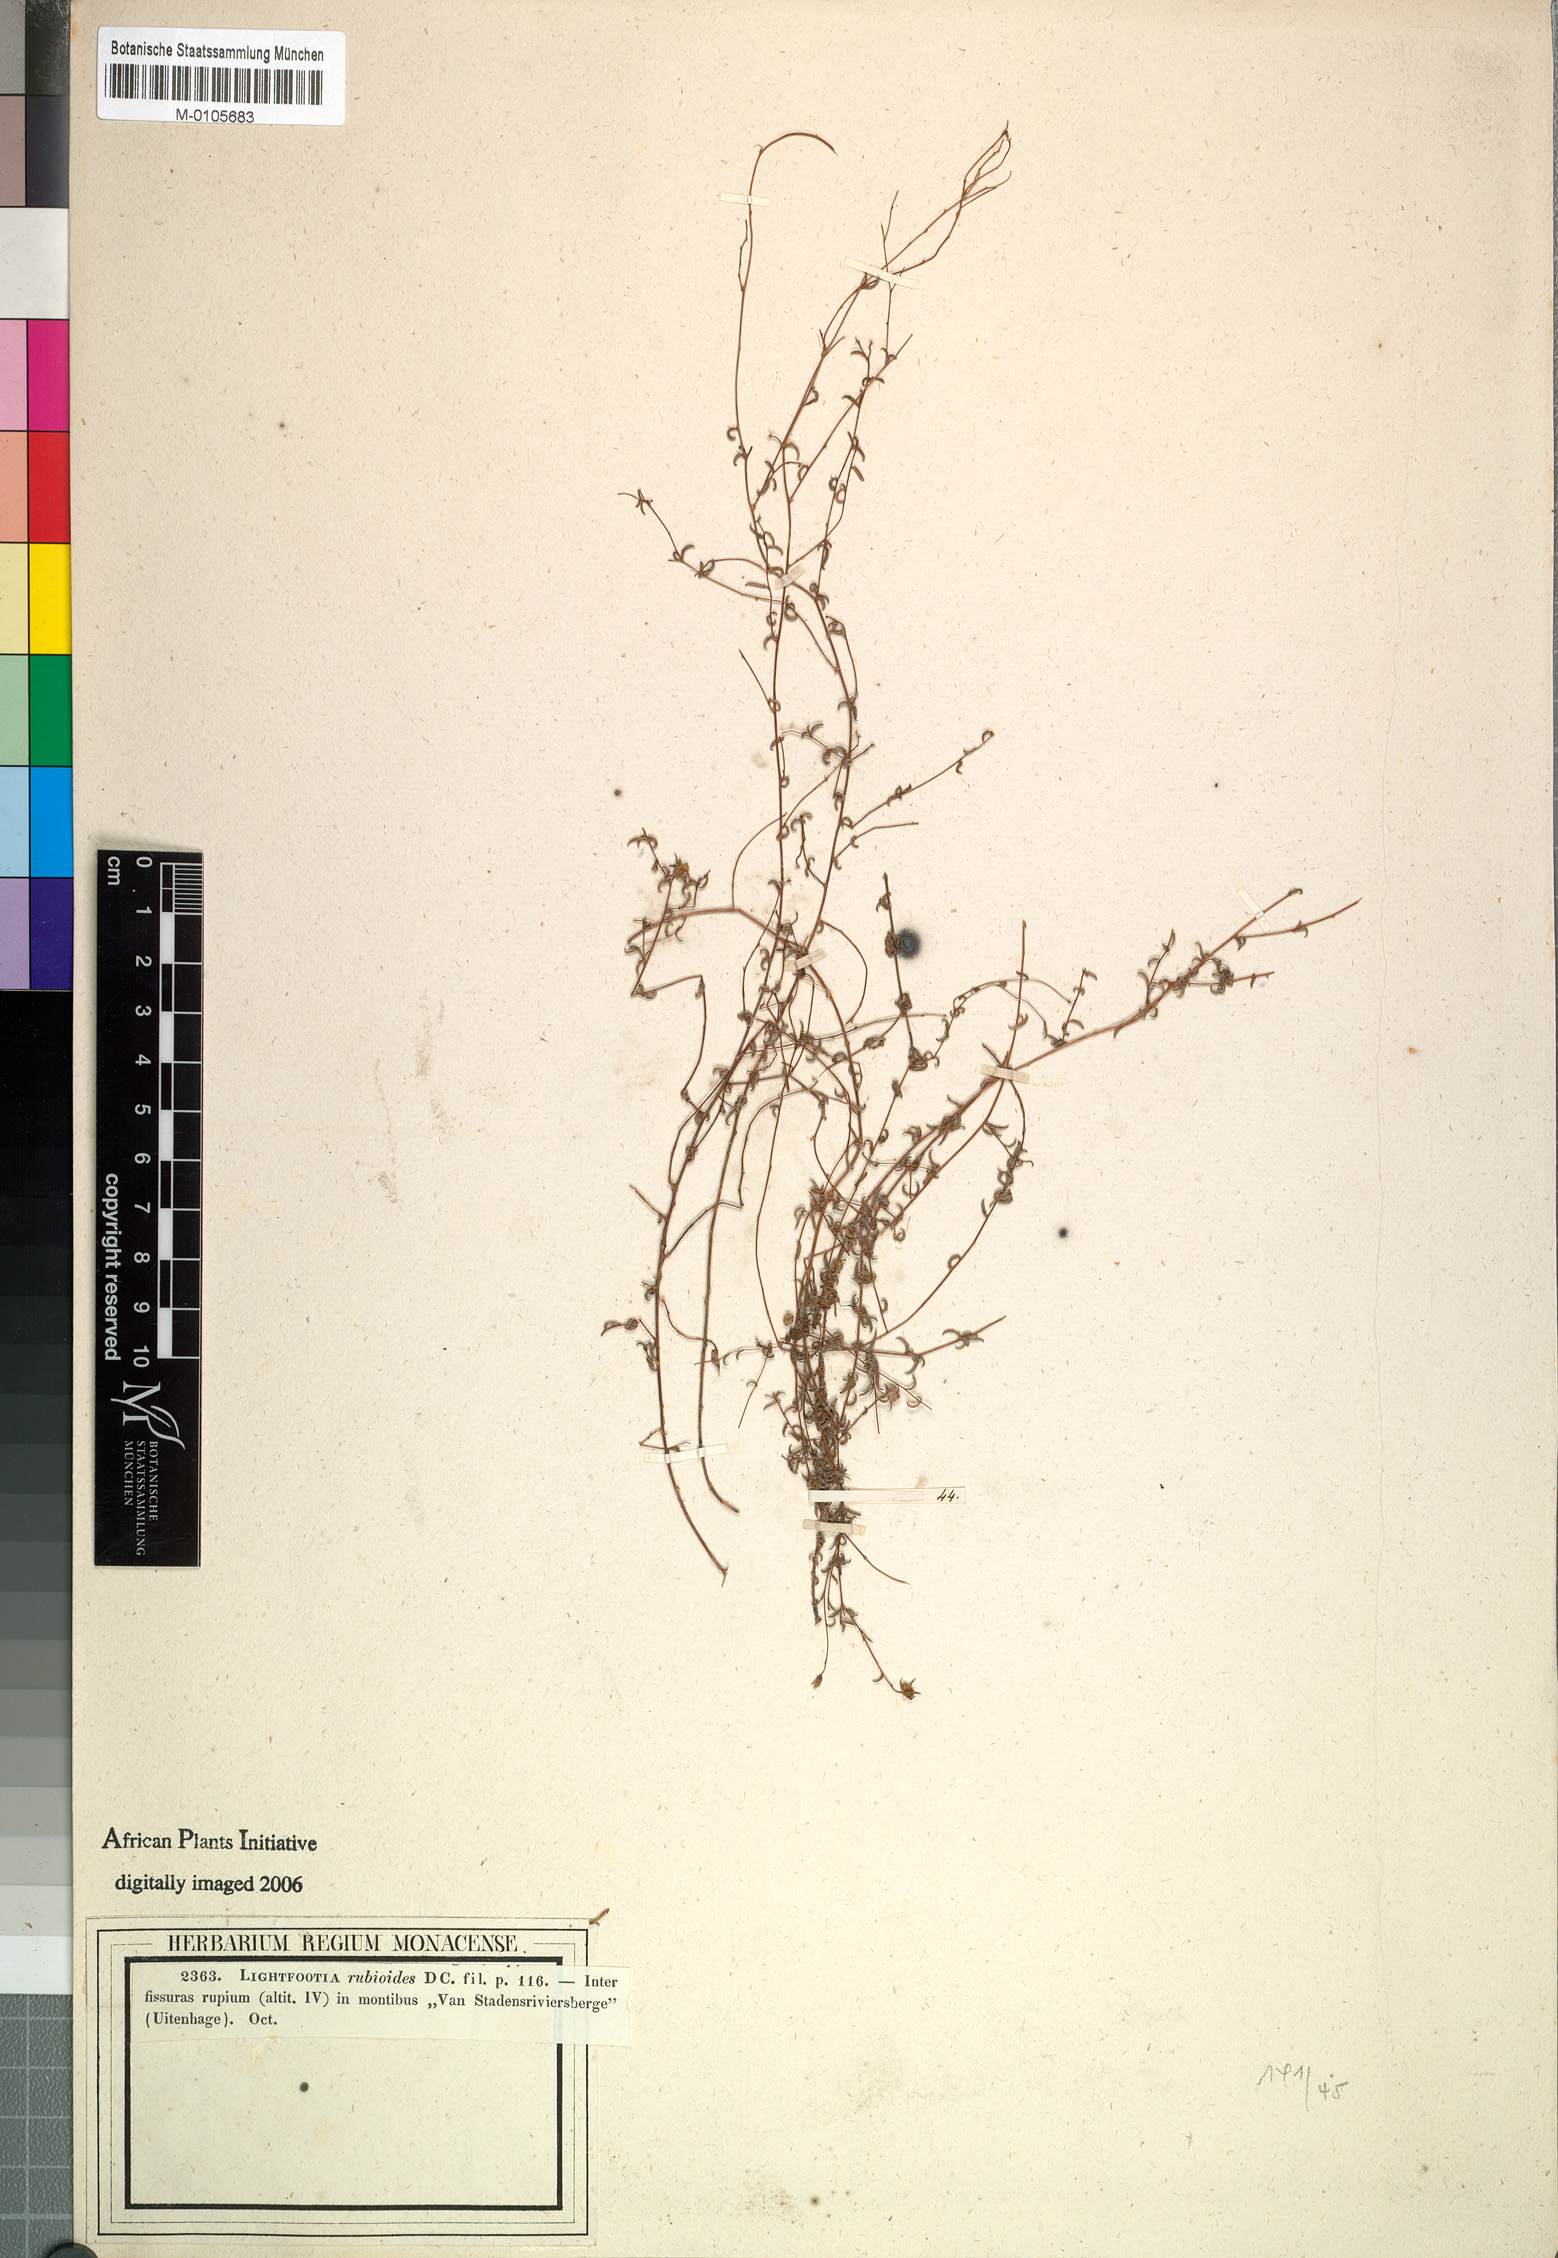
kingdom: Plantae
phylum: Tracheophyta
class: Magnoliopsida
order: Asterales
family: Campanulaceae
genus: Wahlenbergia
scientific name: Wahlenbergia rubioides
